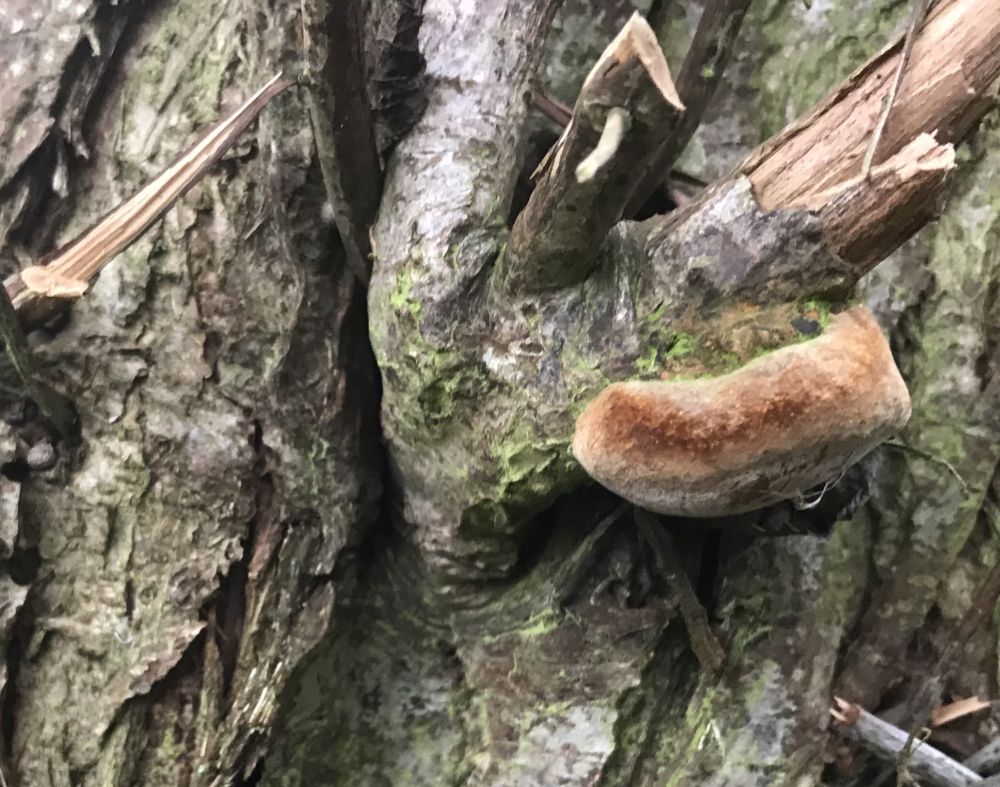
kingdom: Fungi
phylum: Basidiomycota
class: Agaricomycetes
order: Hymenochaetales
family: Hymenochaetaceae
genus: Fomitiporia
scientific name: Fomitiporia hippophaeicola
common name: havtorn-ildporesvamp
